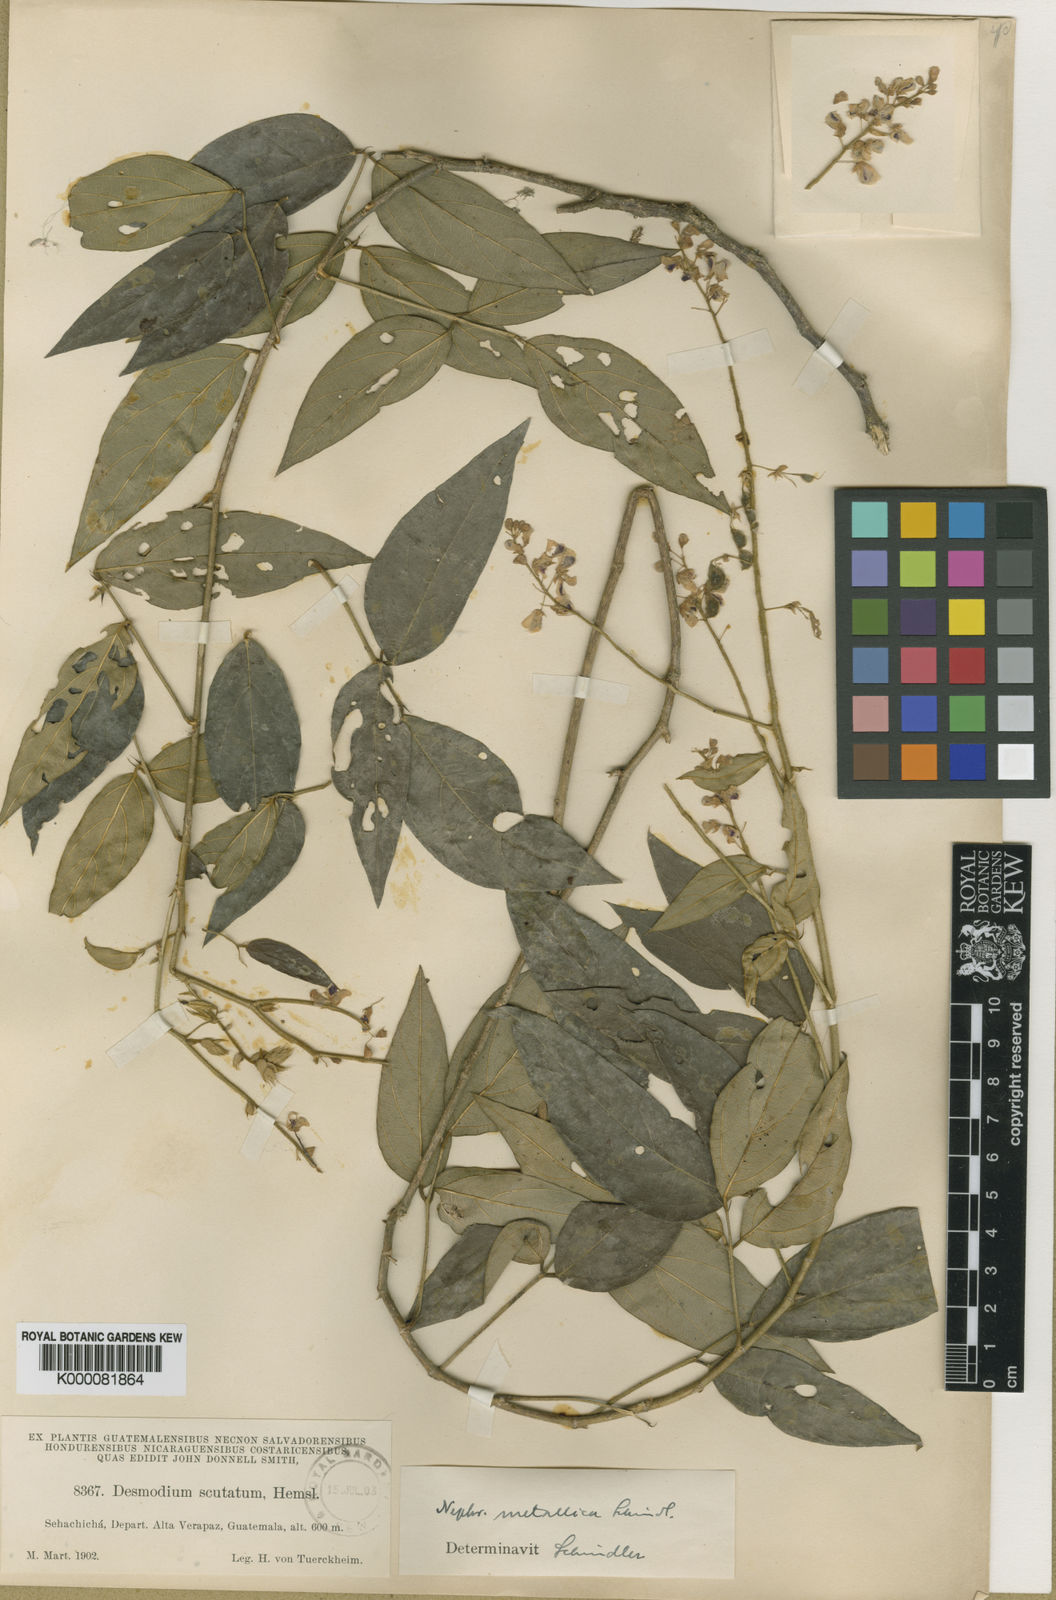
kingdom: Plantae
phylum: Tracheophyta
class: Magnoliopsida
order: Fabales
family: Fabaceae
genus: Desmodium
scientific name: Desmodium scutatum
